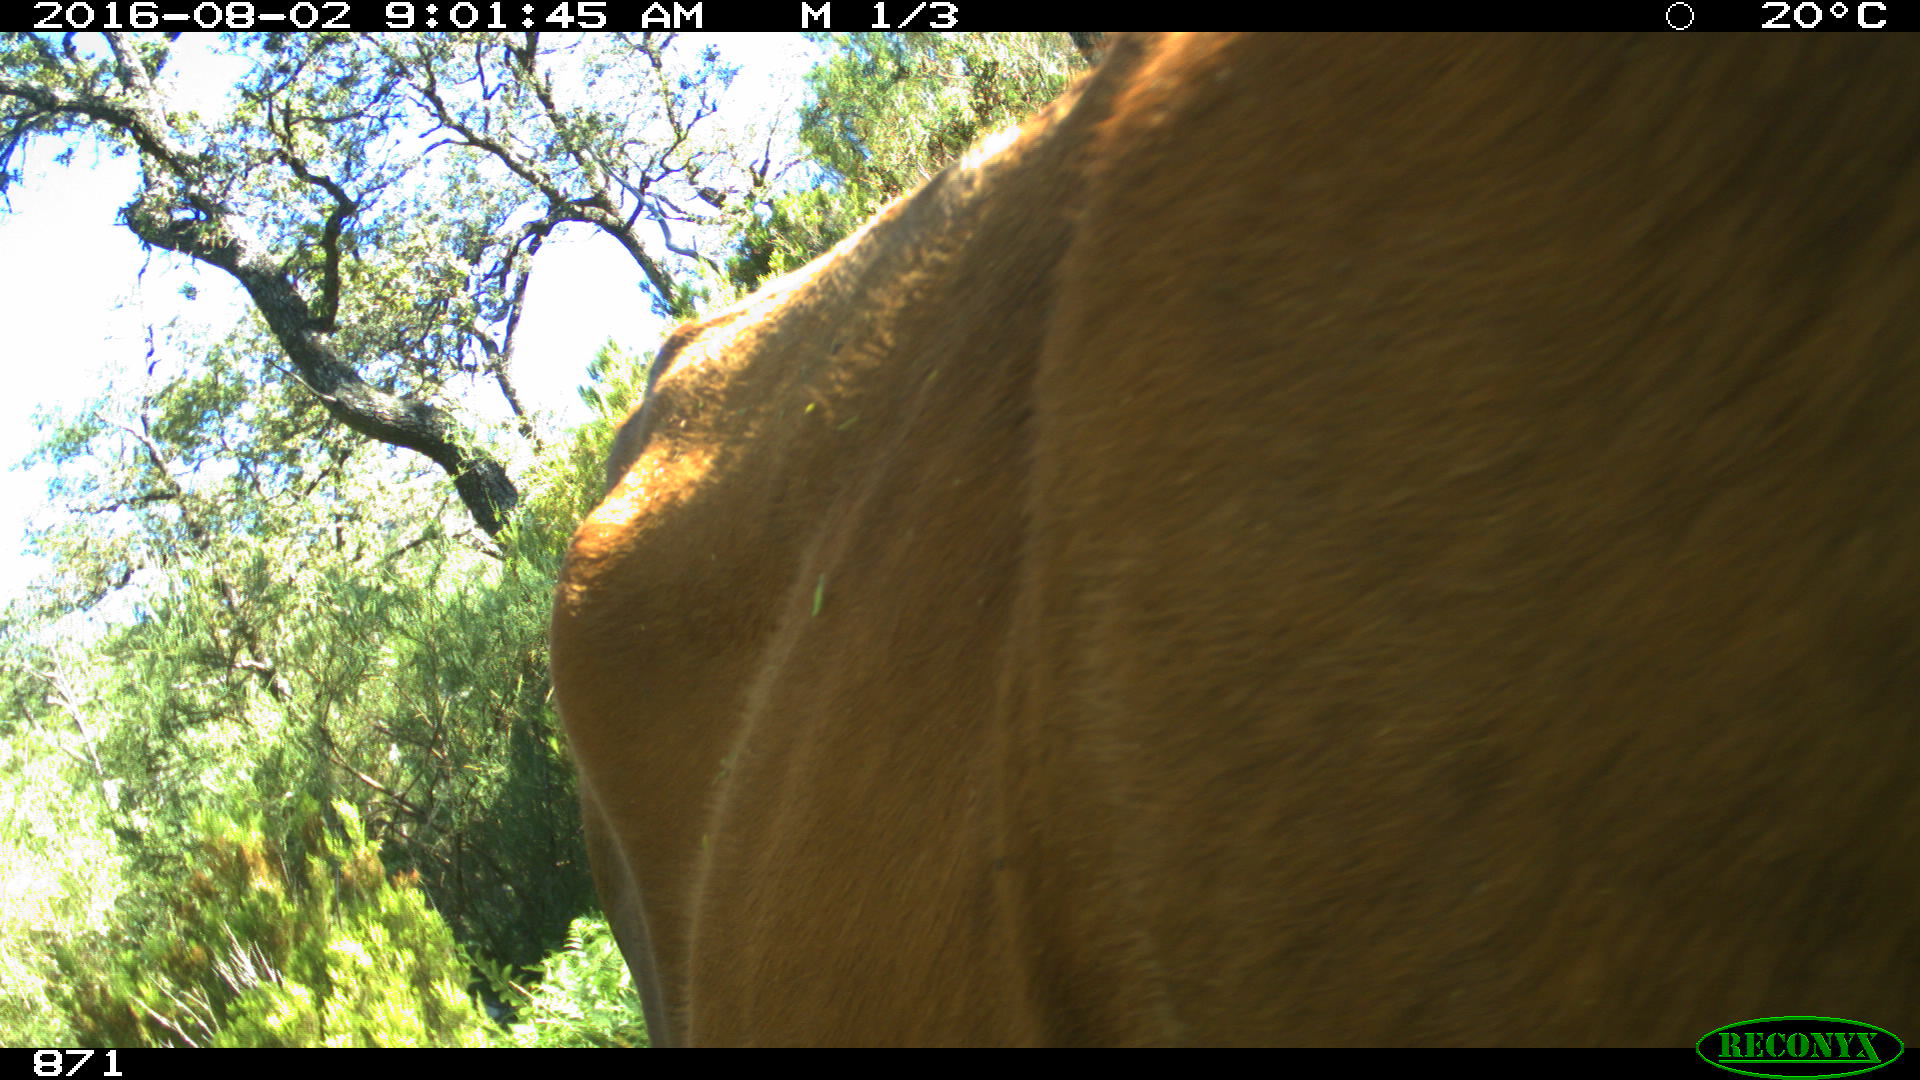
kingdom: Animalia
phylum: Chordata
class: Mammalia
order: Artiodactyla
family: Bovidae
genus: Bos
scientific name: Bos taurus
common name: Domesticated cattle
